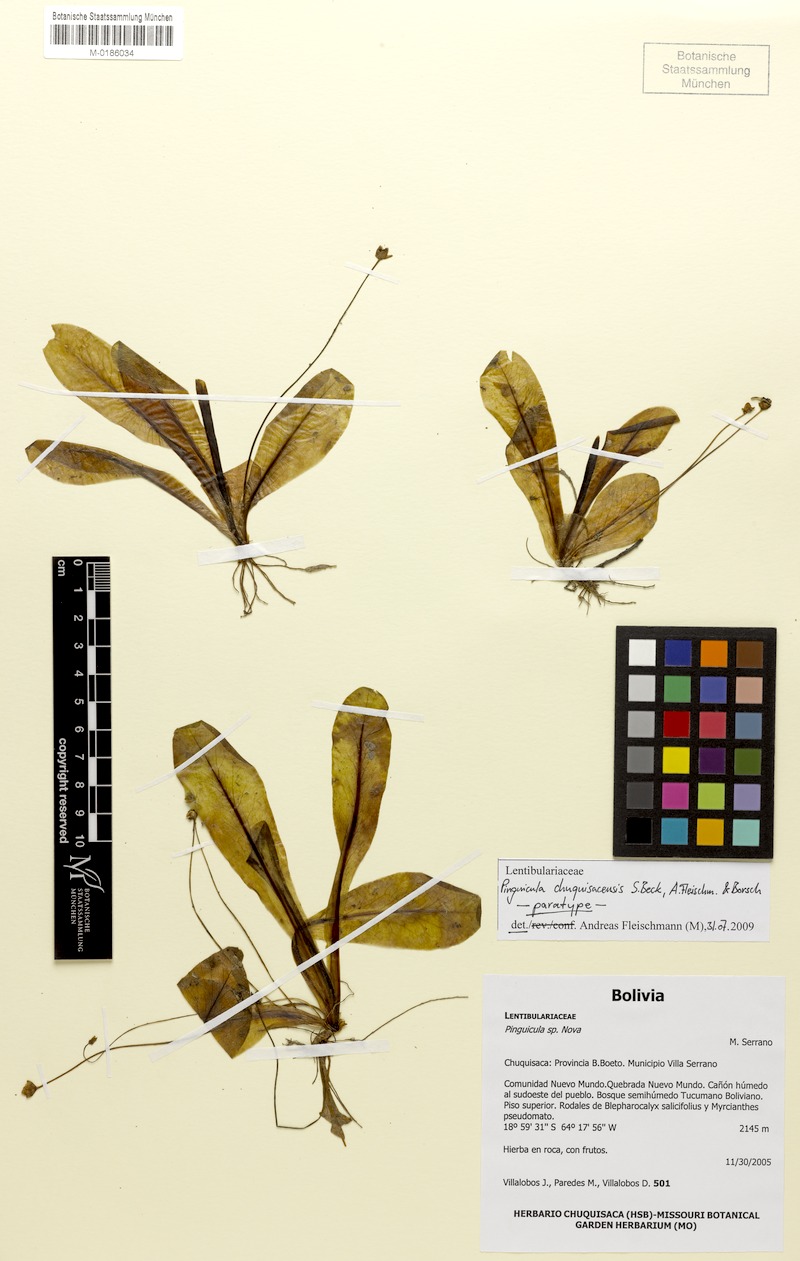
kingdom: Plantae
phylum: Tracheophyta
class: Magnoliopsida
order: Lamiales
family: Lentibulariaceae
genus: Pinguicula
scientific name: Pinguicula jarmilae
